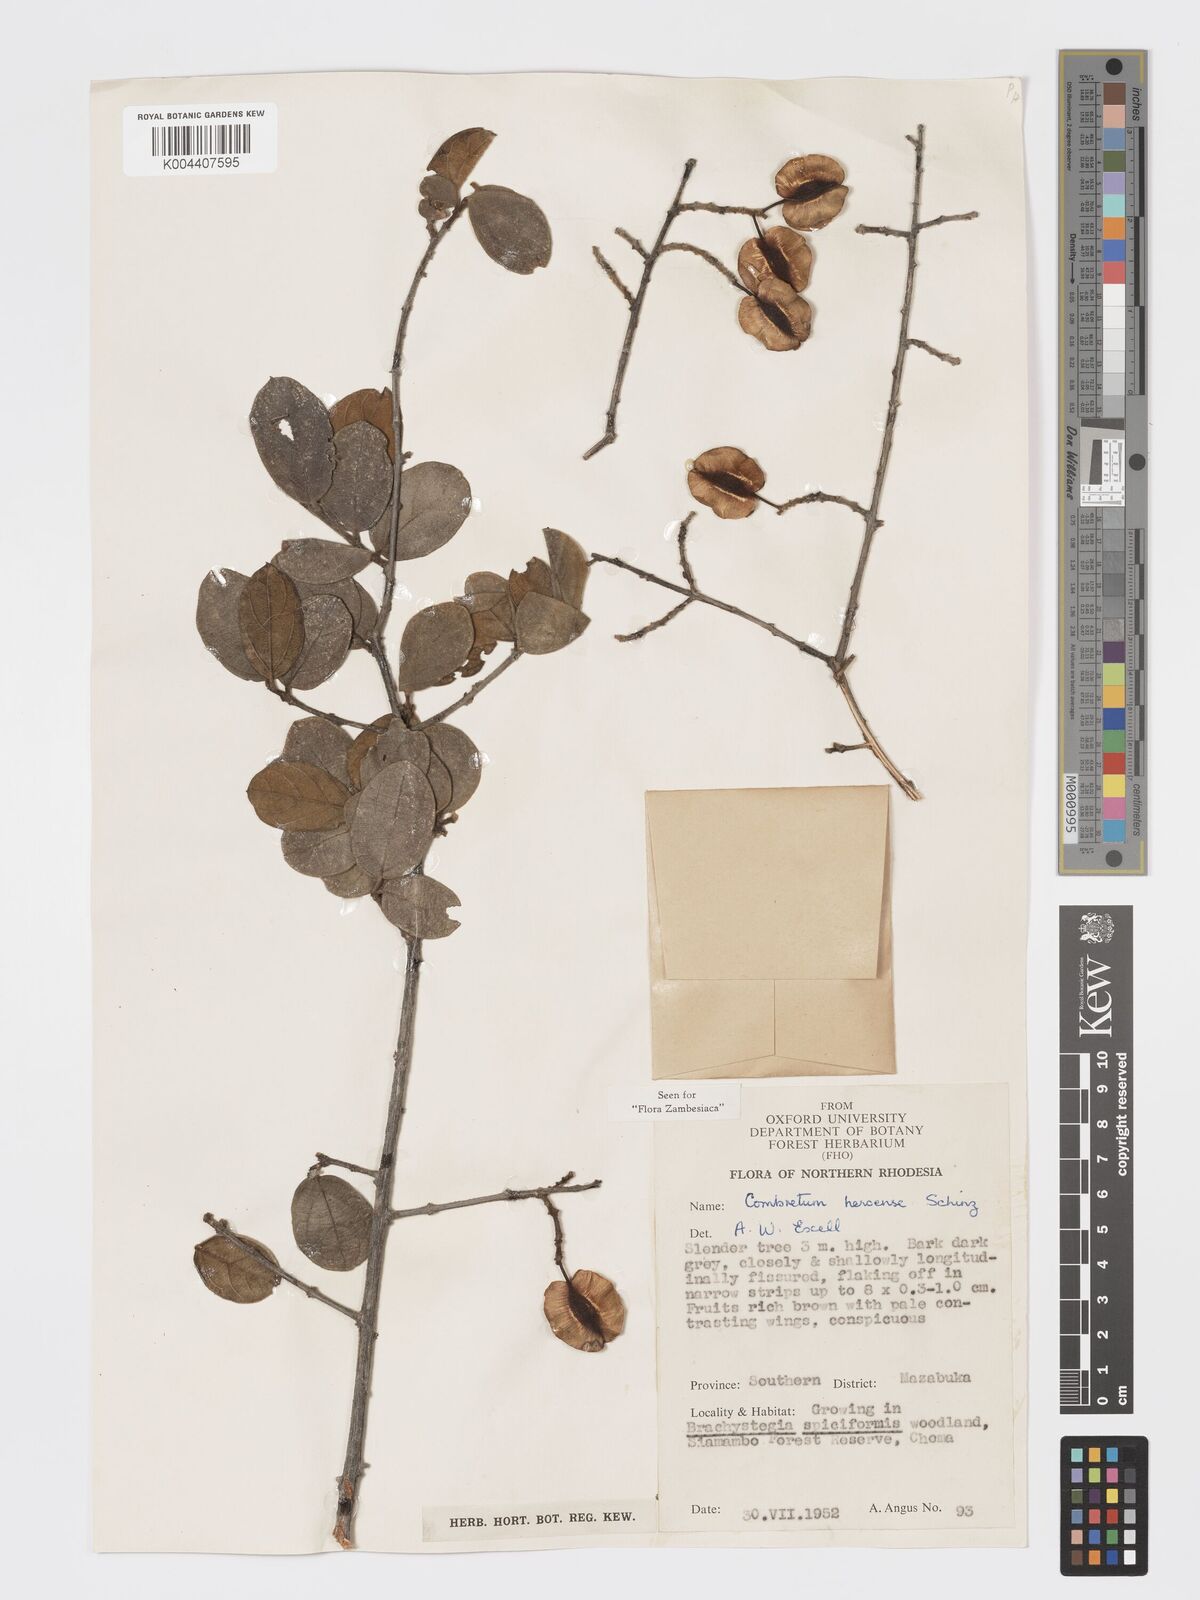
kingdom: Plantae
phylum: Tracheophyta
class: Magnoliopsida
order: Myrtales
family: Combretaceae
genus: Combretum
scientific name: Combretum hereroense
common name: Russet bushwillow
